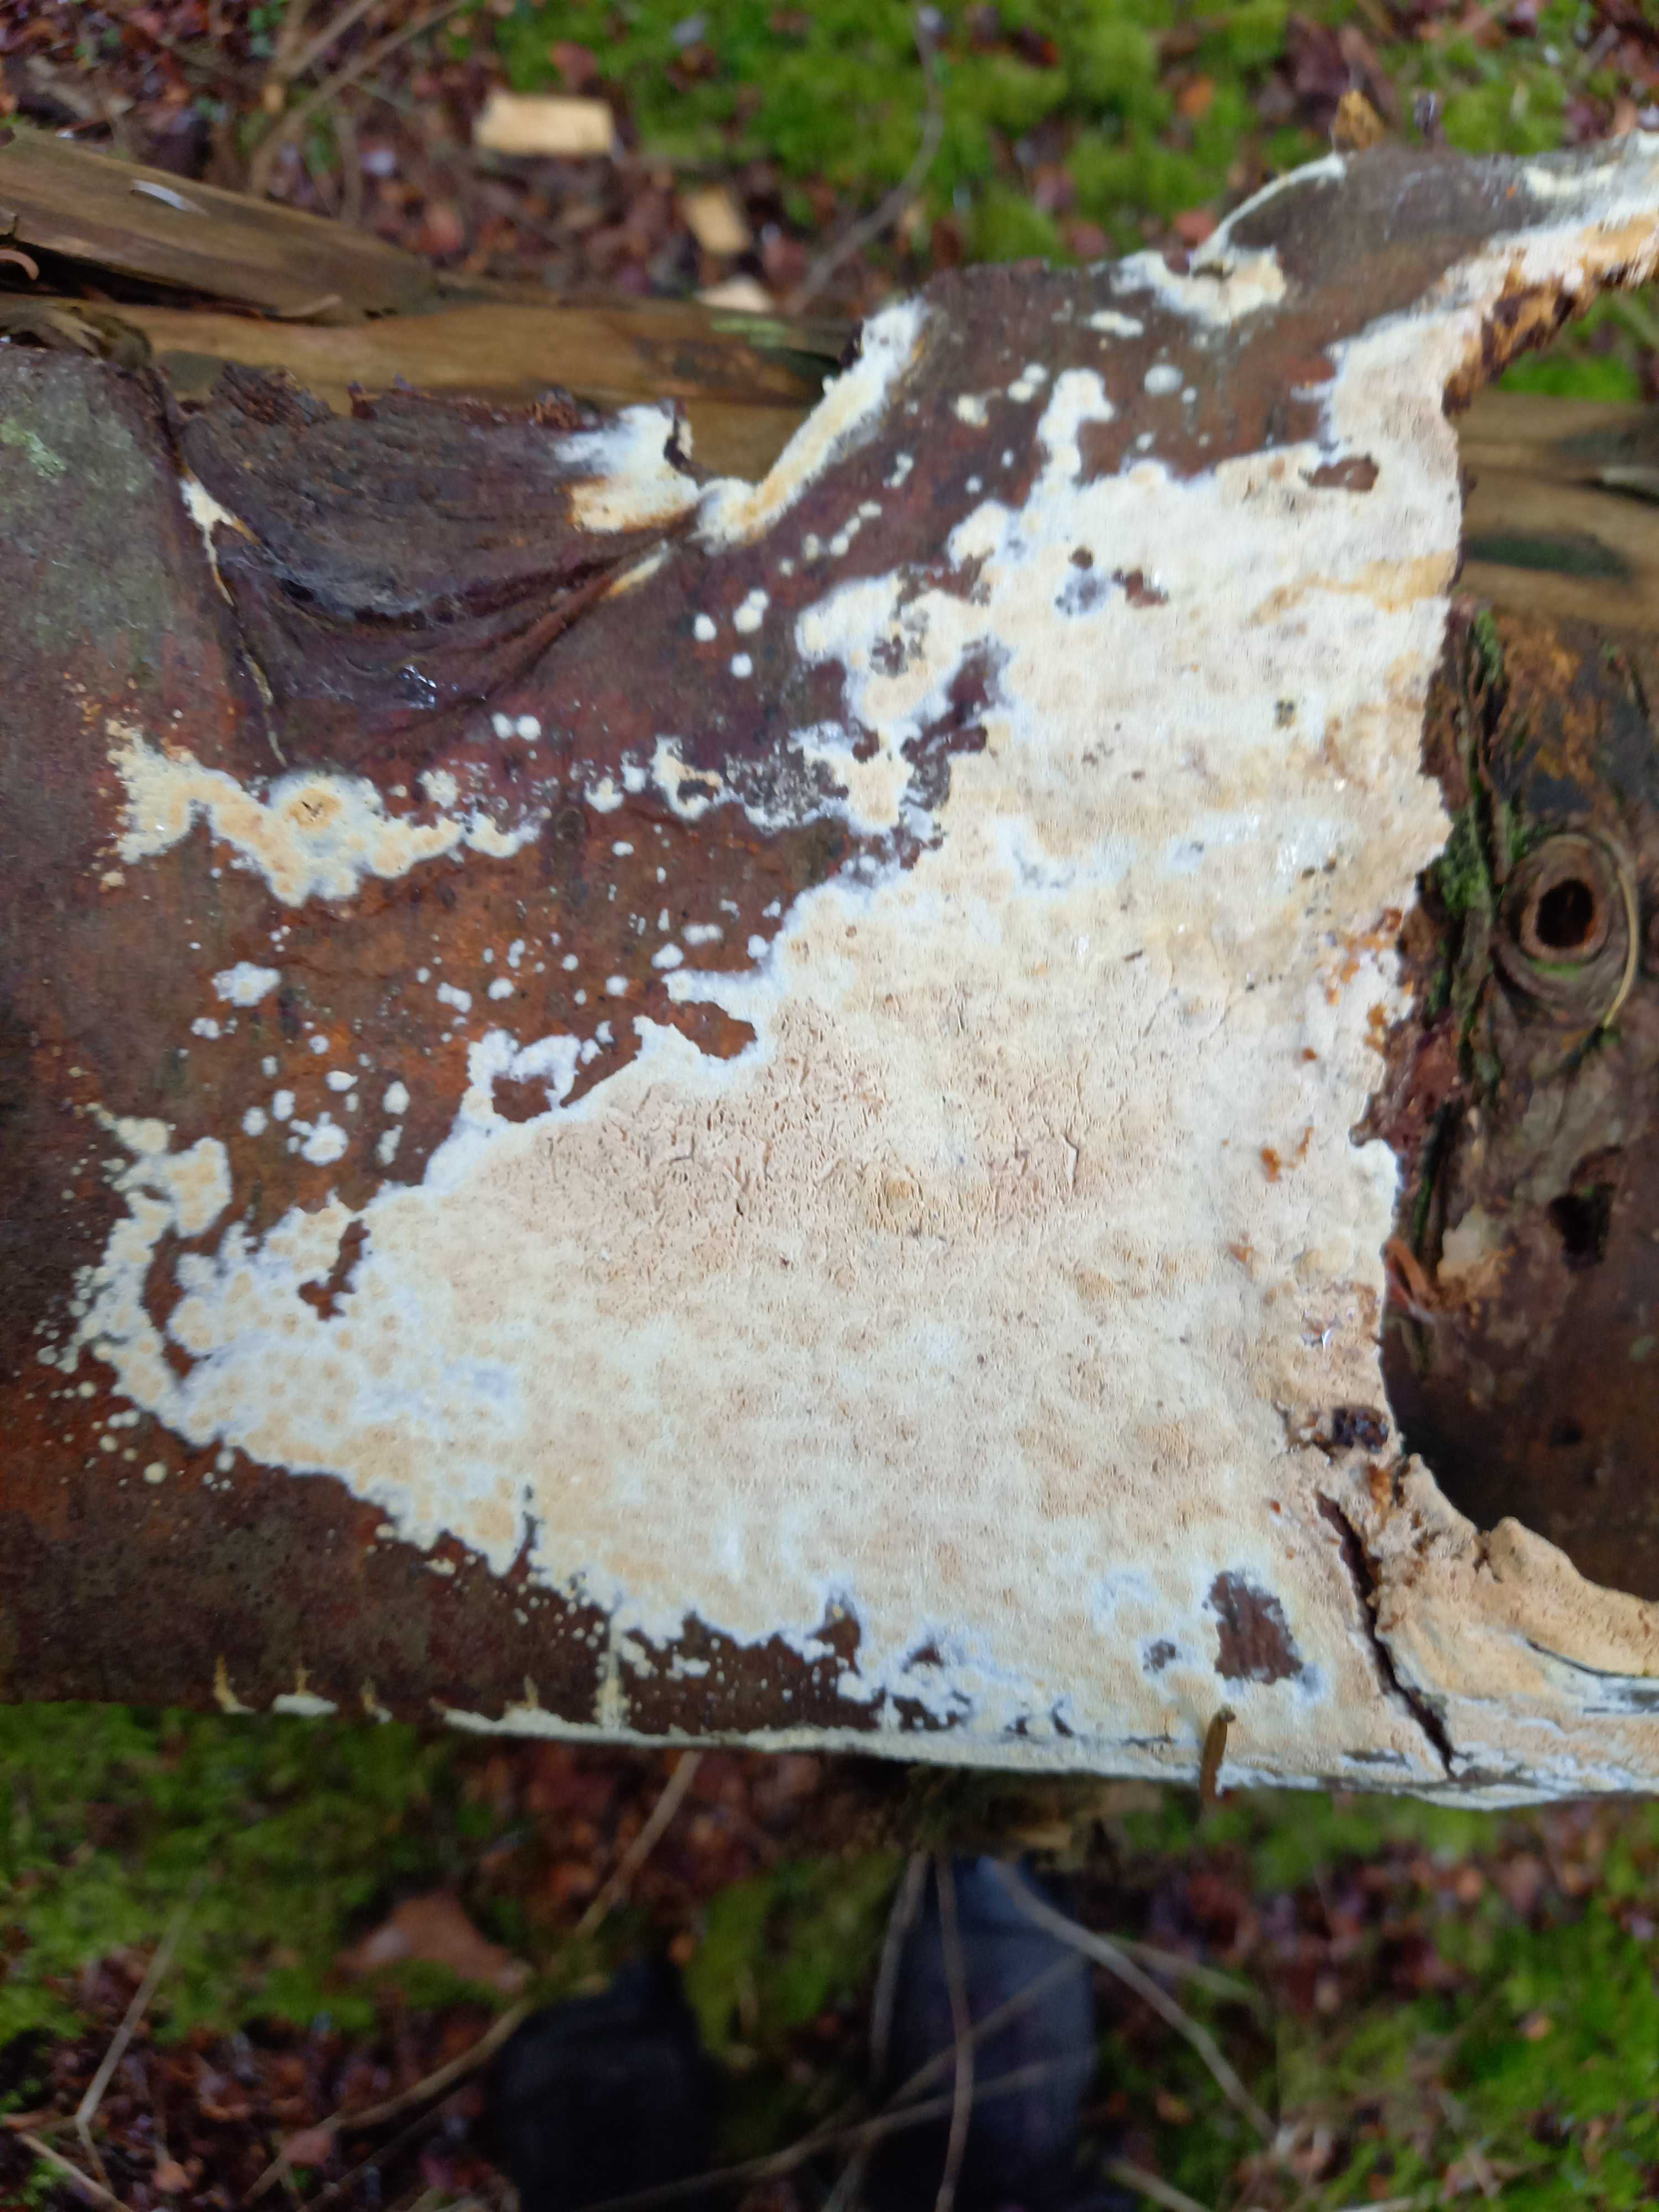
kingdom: Fungi
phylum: Basidiomycota
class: Agaricomycetes
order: Polyporales
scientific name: Polyporales
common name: poresvampordenen
